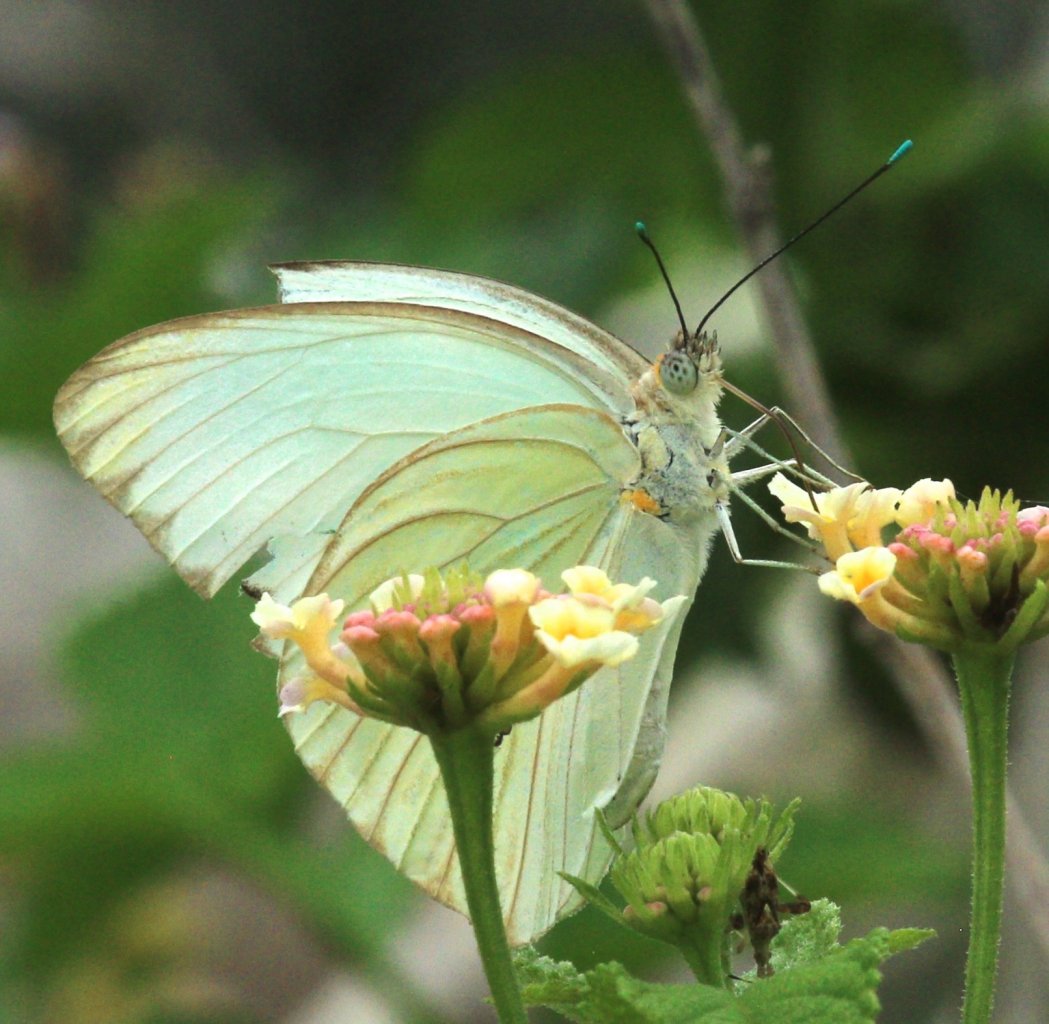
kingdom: Animalia
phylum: Arthropoda
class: Insecta
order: Lepidoptera
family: Pieridae
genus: Ascia
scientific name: Ascia monuste
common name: Great Southern White
